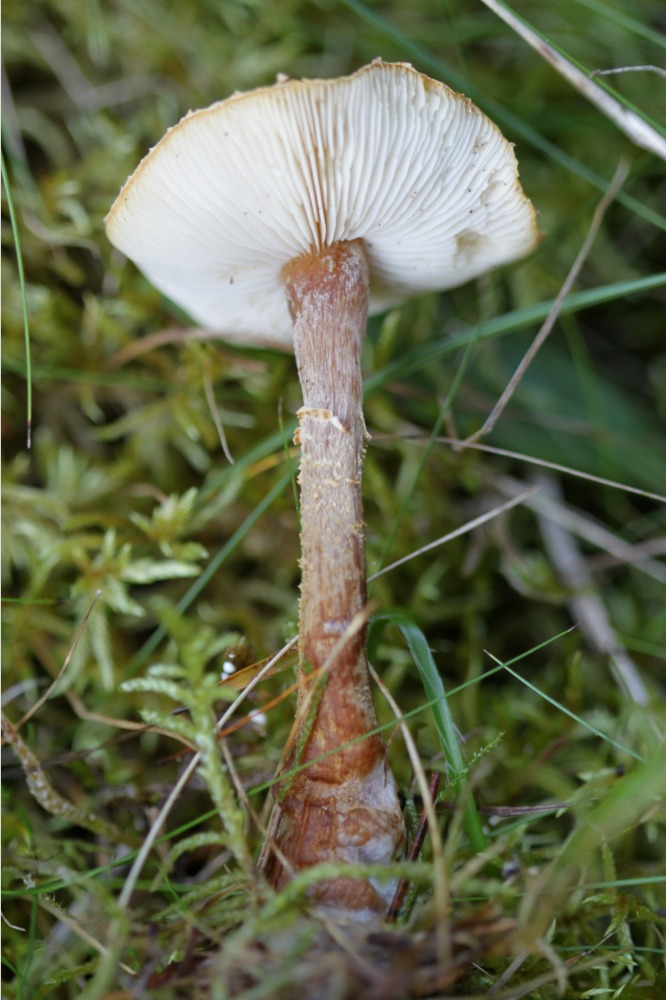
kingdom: Fungi
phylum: Basidiomycota
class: Agaricomycetes
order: Agaricales
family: Tricholomataceae
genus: Cystoderma
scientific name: Cystoderma amianthinum
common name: okkergul grynhat
